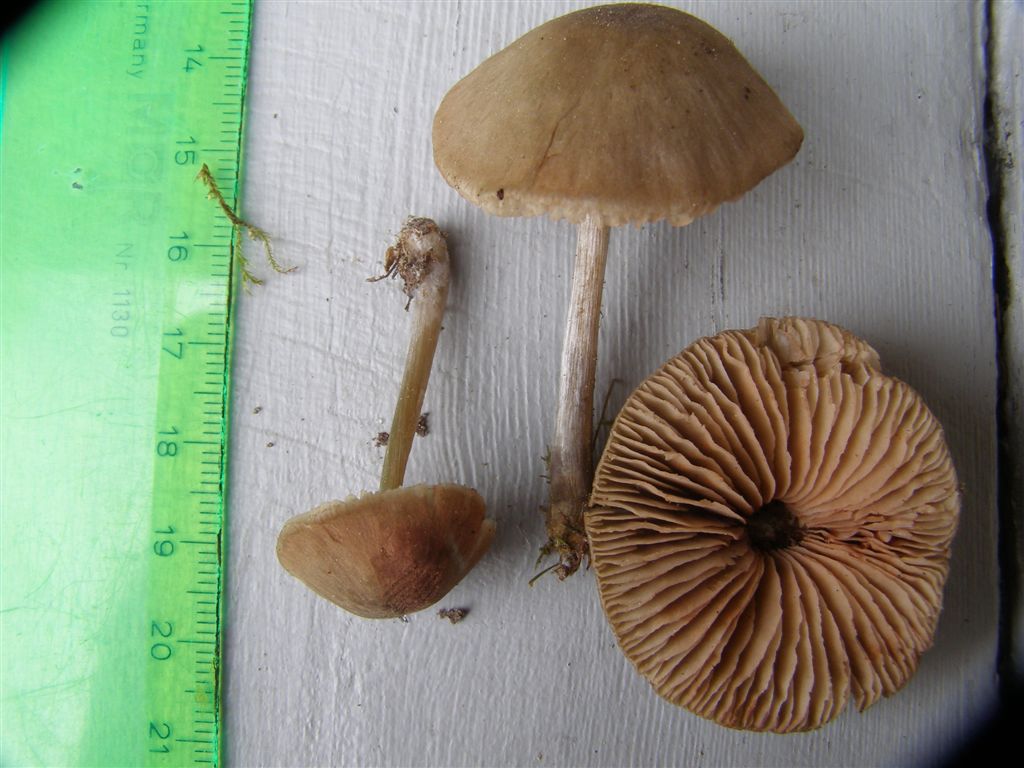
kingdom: Fungi
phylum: Basidiomycota
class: Agaricomycetes
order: Agaricales
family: Entolomataceae
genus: Entoloma
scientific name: Entoloma conferendum
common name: stjernesporet rødblad
